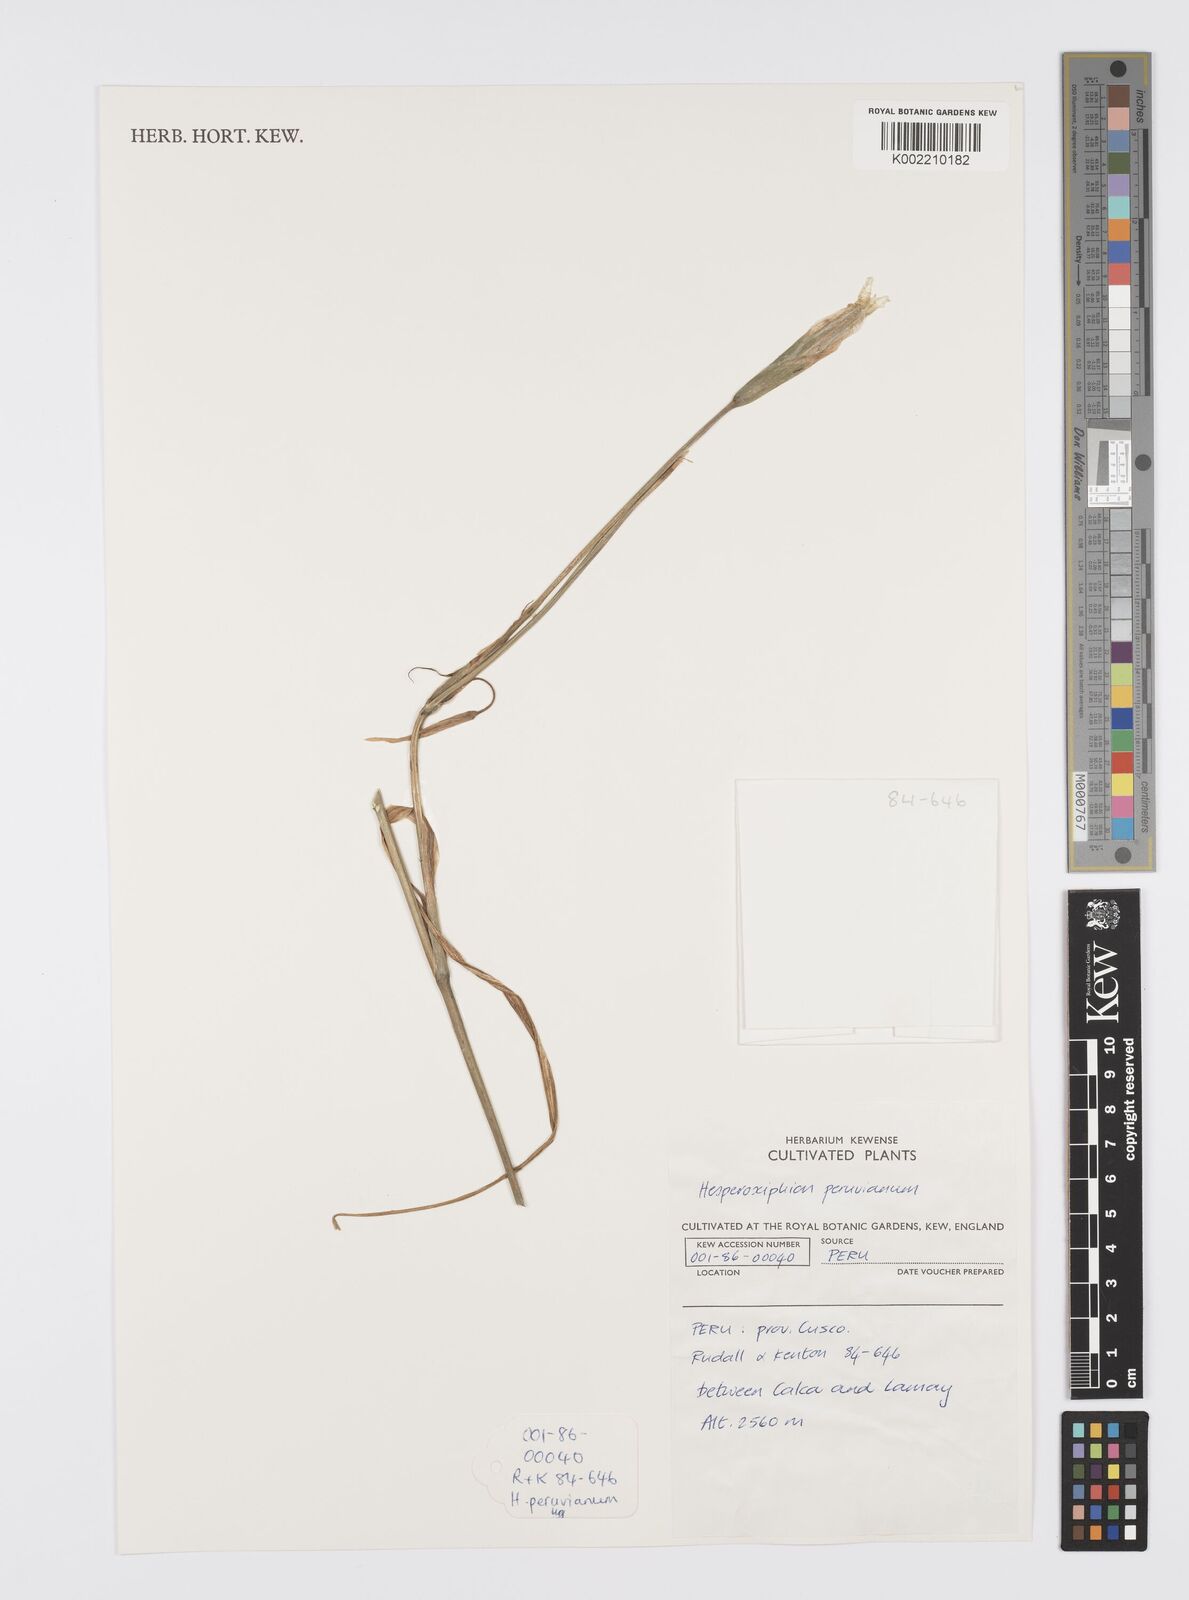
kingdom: Plantae
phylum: Tracheophyta
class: Liliopsida
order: Asparagales
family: Iridaceae
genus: Hesperoxiphion
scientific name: Hesperoxiphion peruvianum
